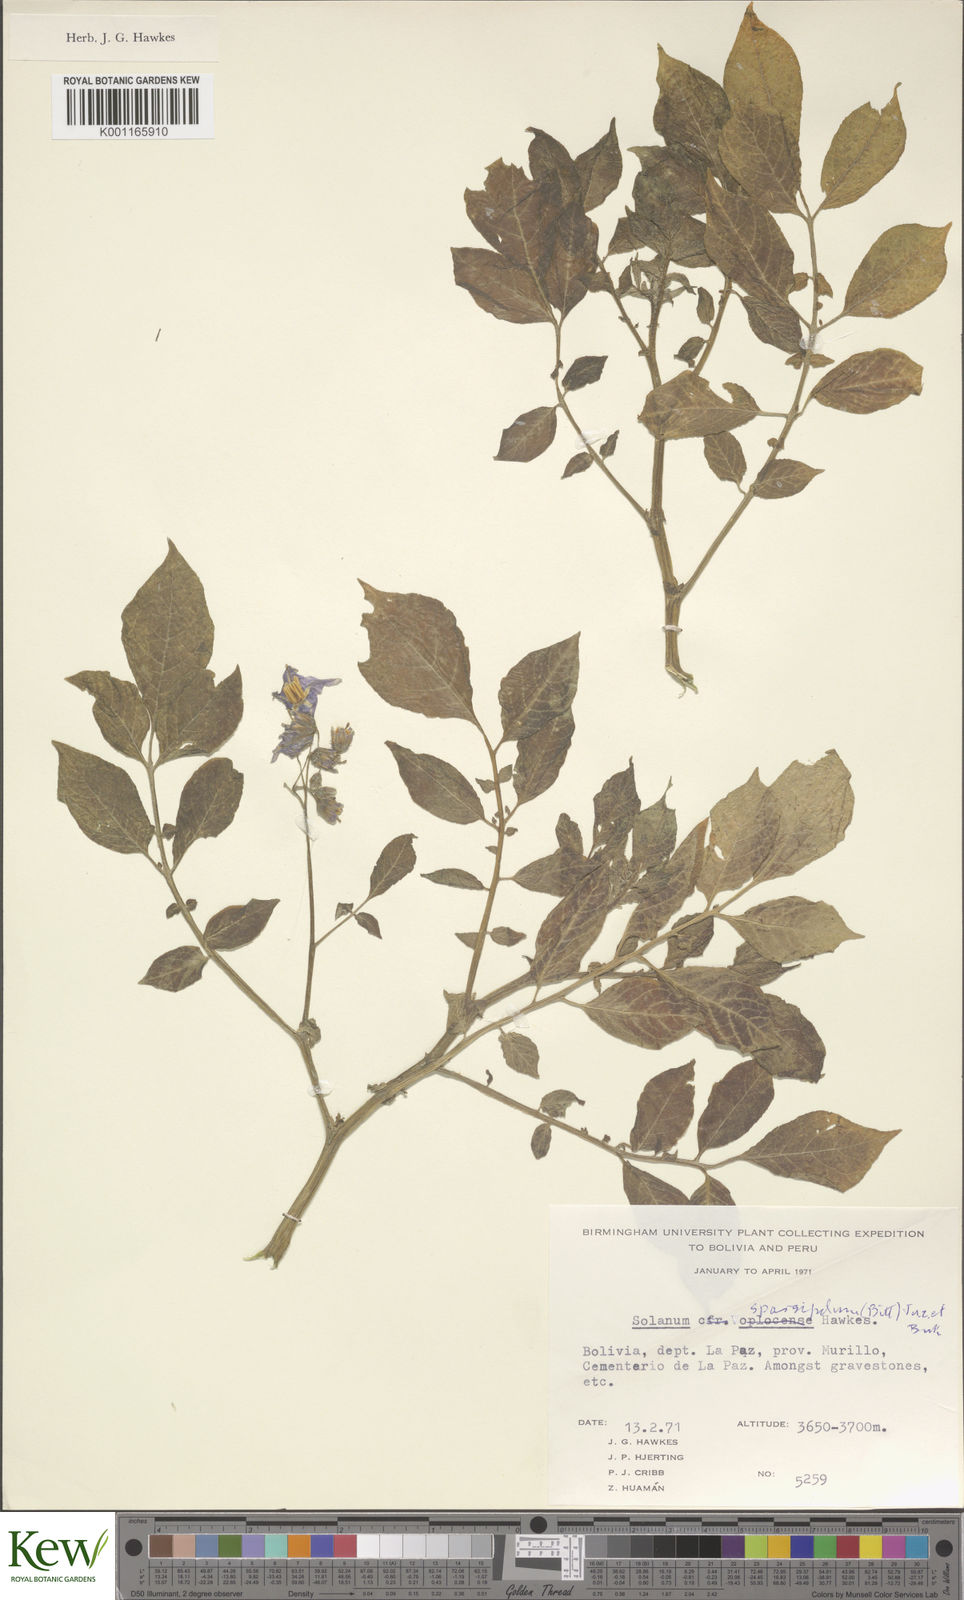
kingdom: Plantae
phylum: Tracheophyta
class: Magnoliopsida
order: Solanales
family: Solanaceae
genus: Solanum
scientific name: Solanum brevicaule
